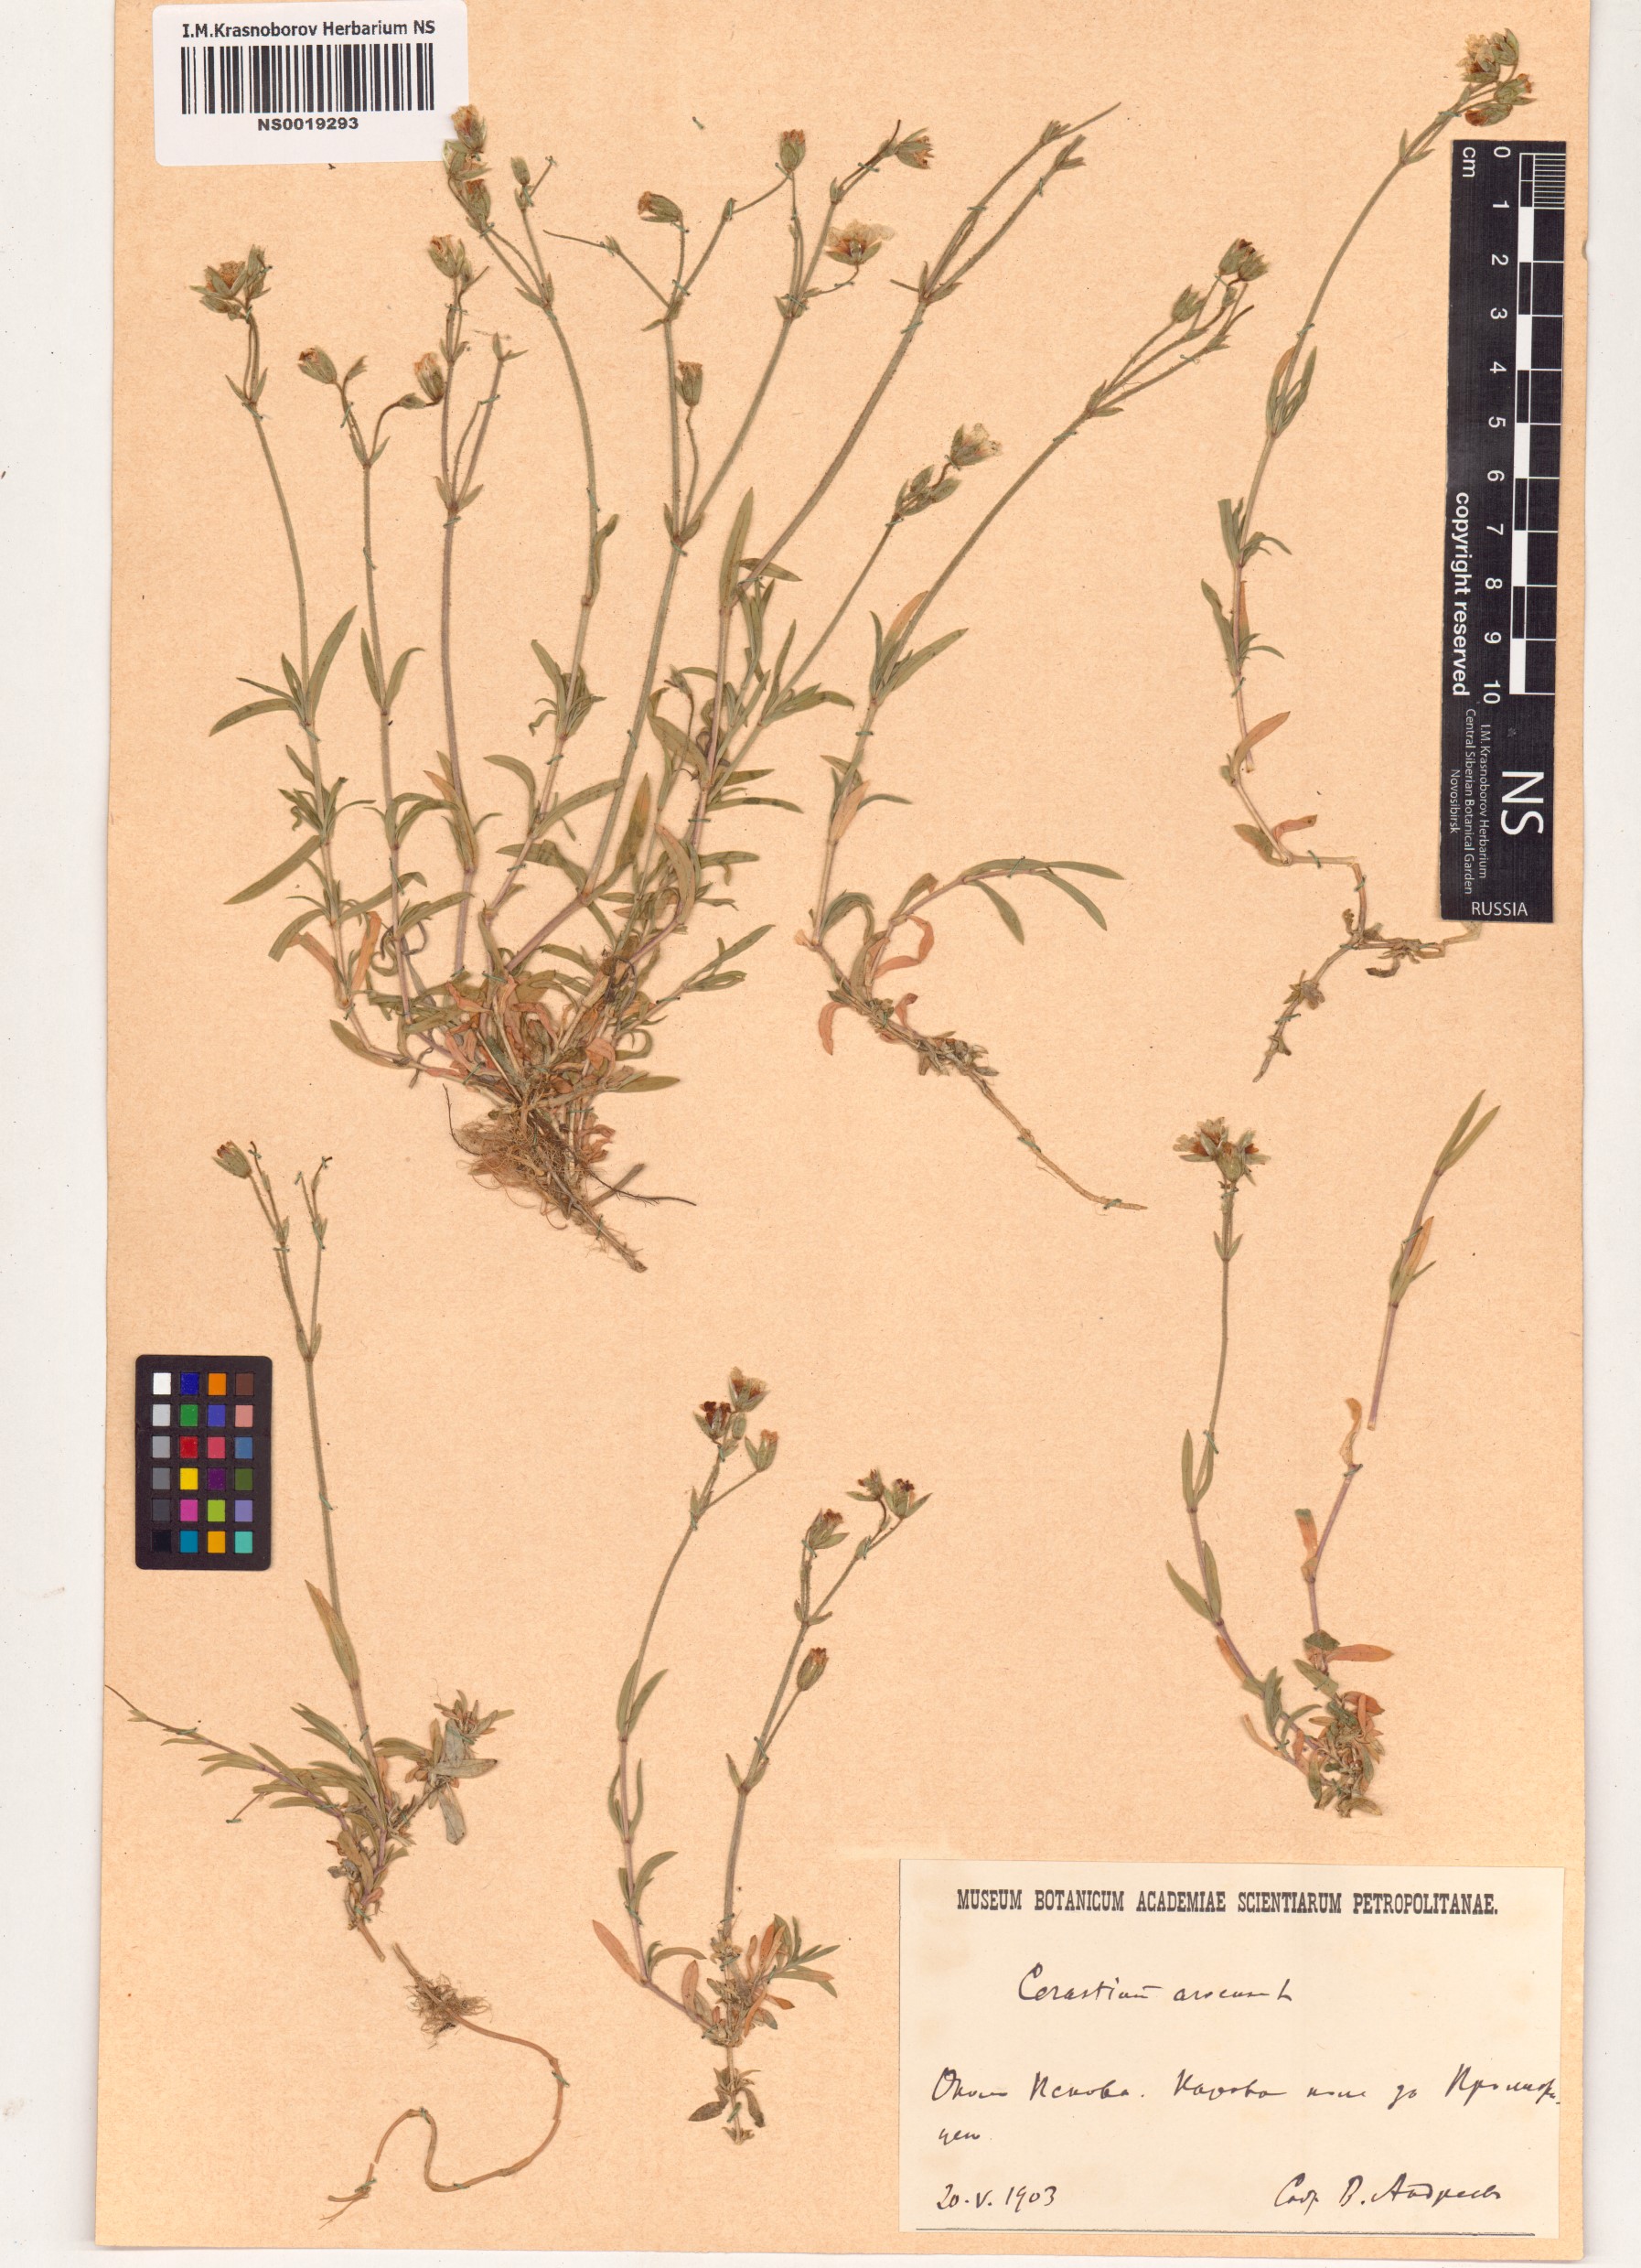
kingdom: Plantae
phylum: Tracheophyta
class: Magnoliopsida
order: Caryophyllales
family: Caryophyllaceae
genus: Cerastium
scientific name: Cerastium arvense
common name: Field mouse-ear
